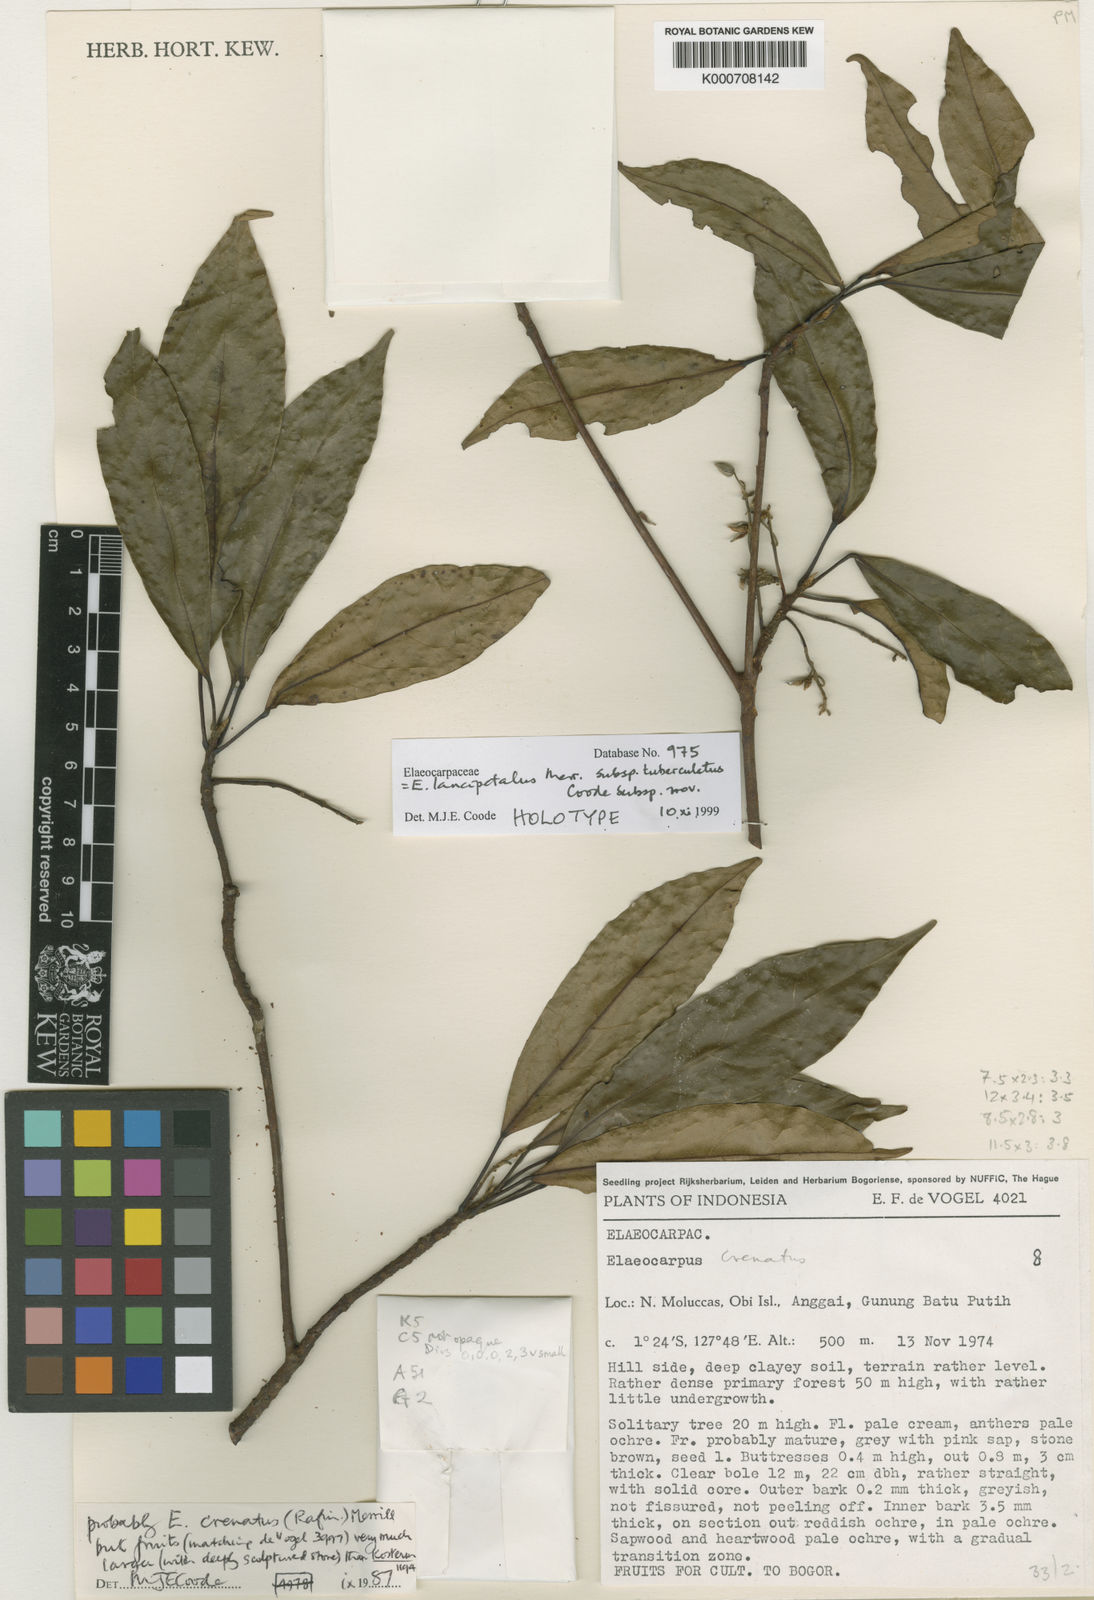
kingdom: Plantae
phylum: Tracheophyta
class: Magnoliopsida
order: Oxalidales
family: Elaeocarpaceae
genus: Elaeocarpus
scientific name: Elaeocarpus lancipetalus
